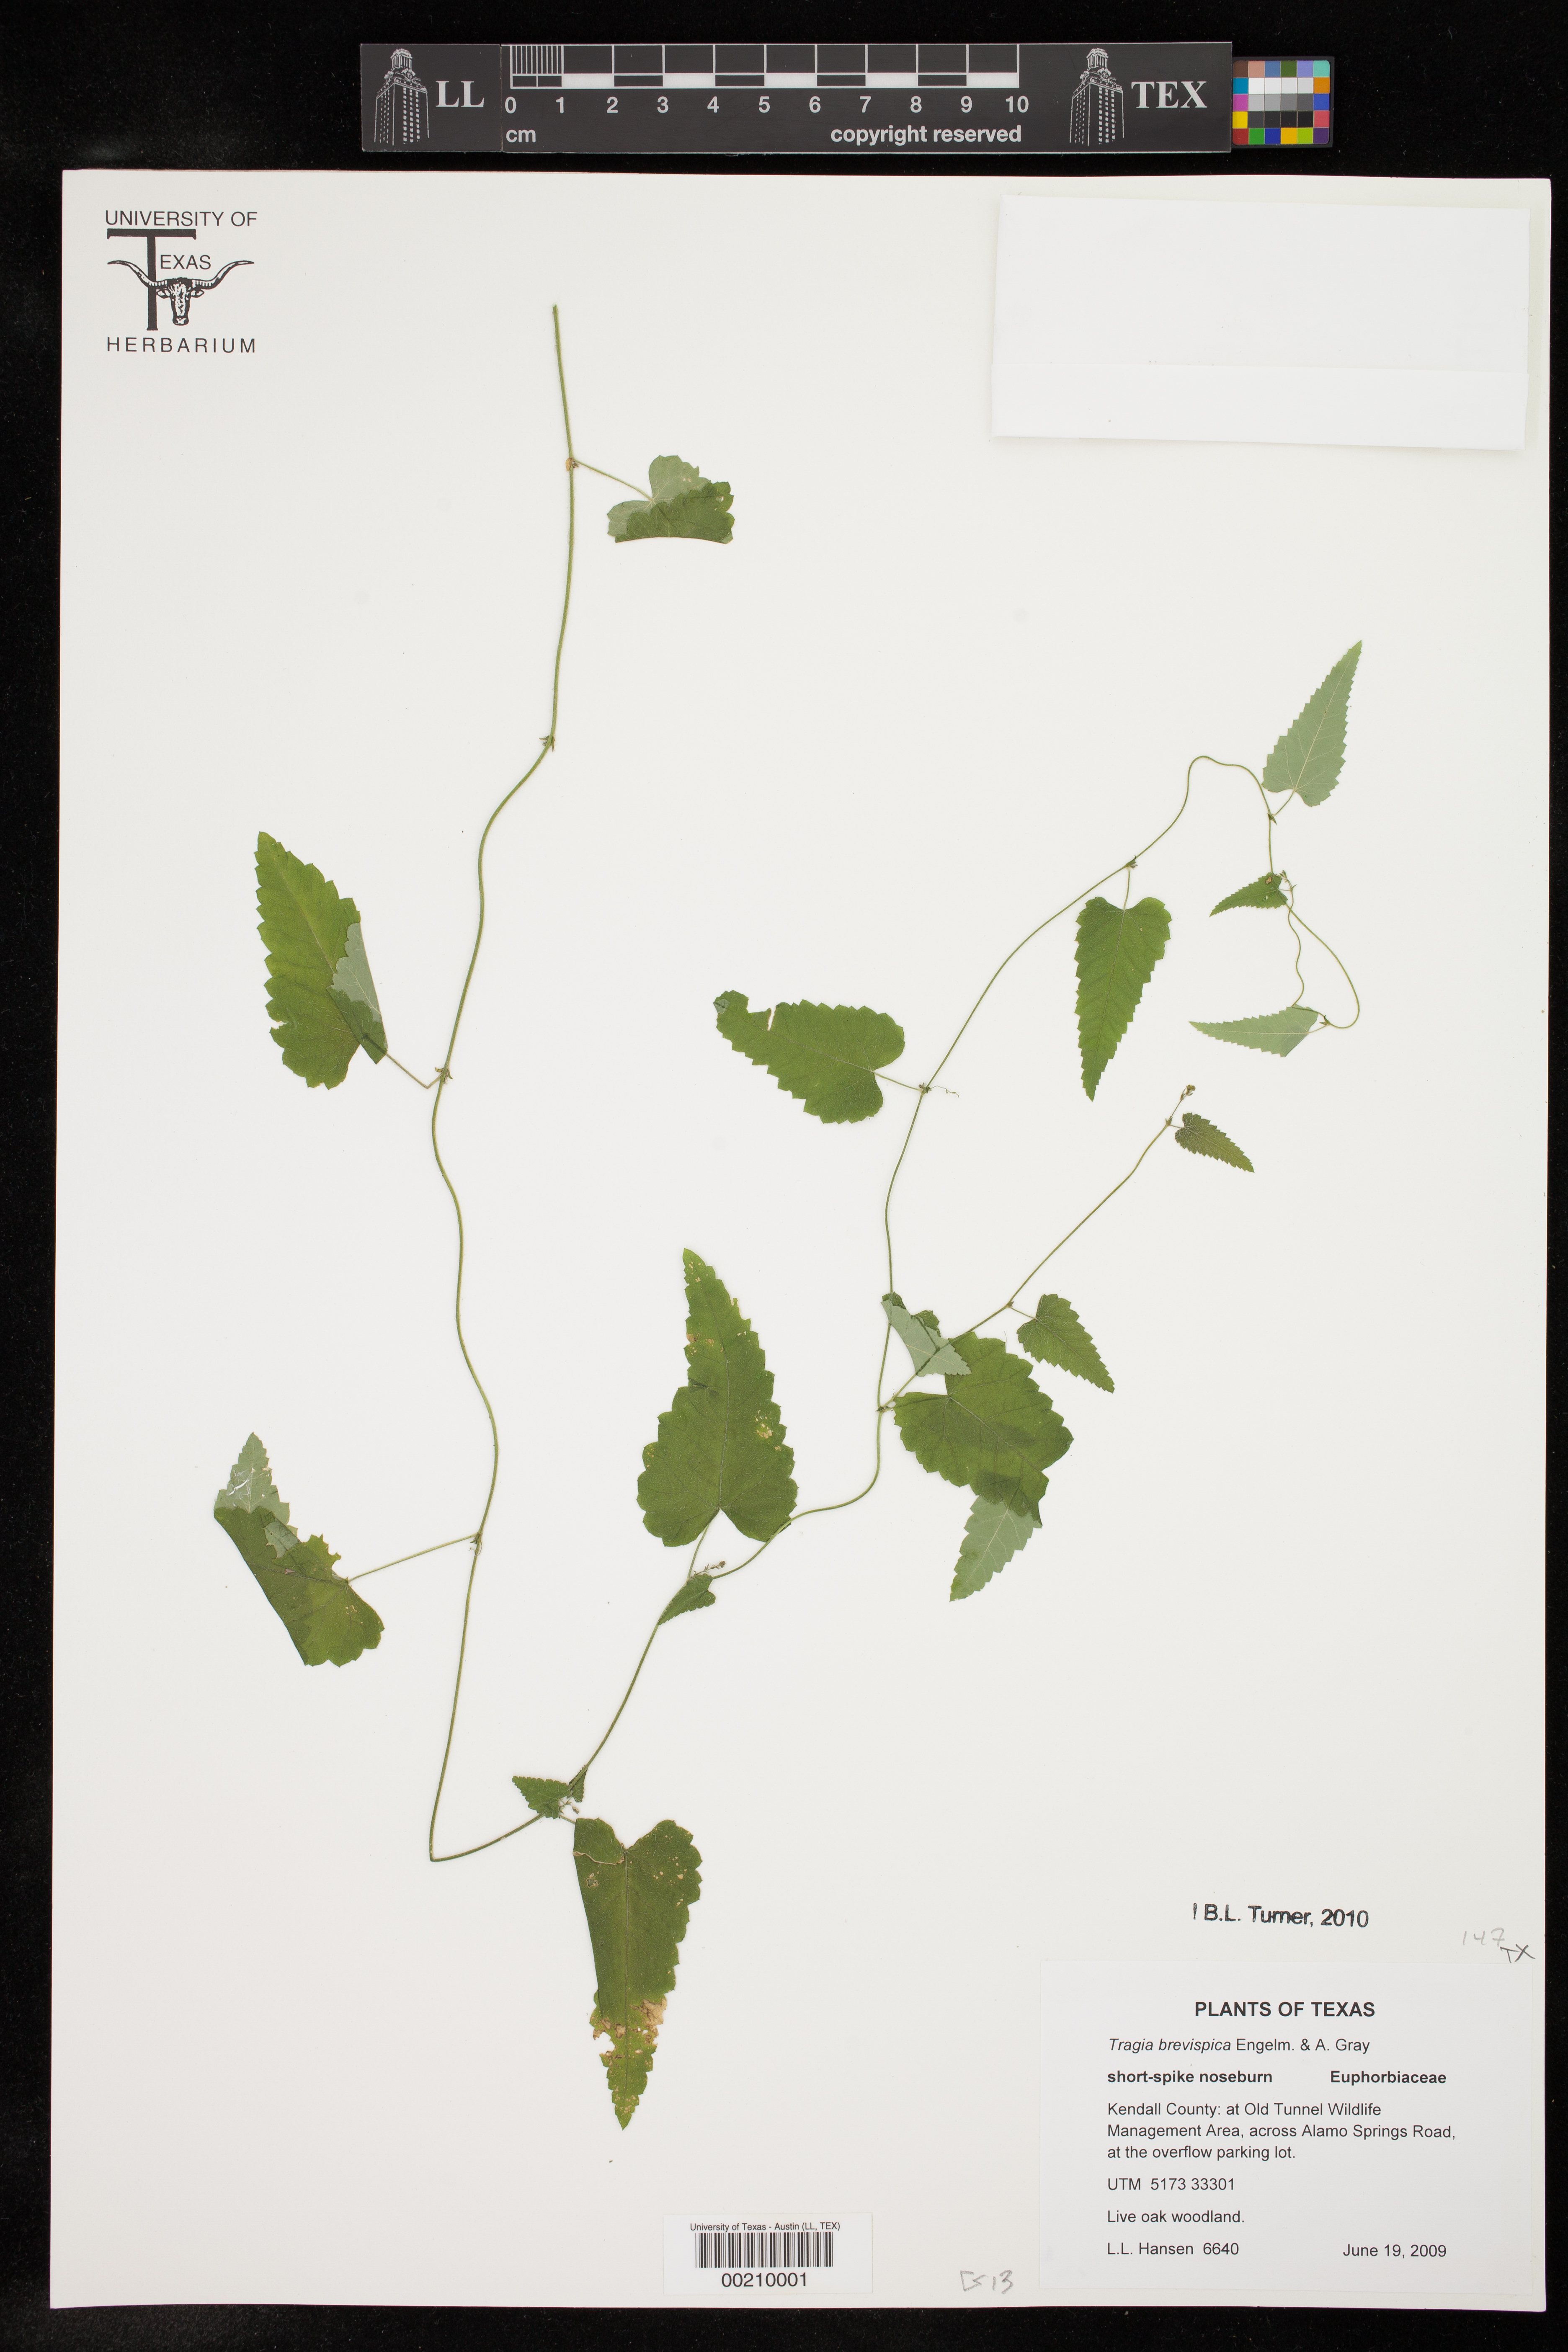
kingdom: Plantae
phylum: Tracheophyta
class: Magnoliopsida
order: Malpighiales
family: Euphorbiaceae
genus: Tragia
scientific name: Tragia brevispica
